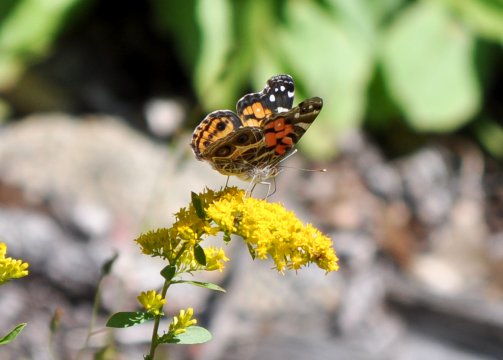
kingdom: Animalia
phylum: Arthropoda
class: Insecta
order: Lepidoptera
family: Nymphalidae
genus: Vanessa
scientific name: Vanessa virginiensis
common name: American Lady
